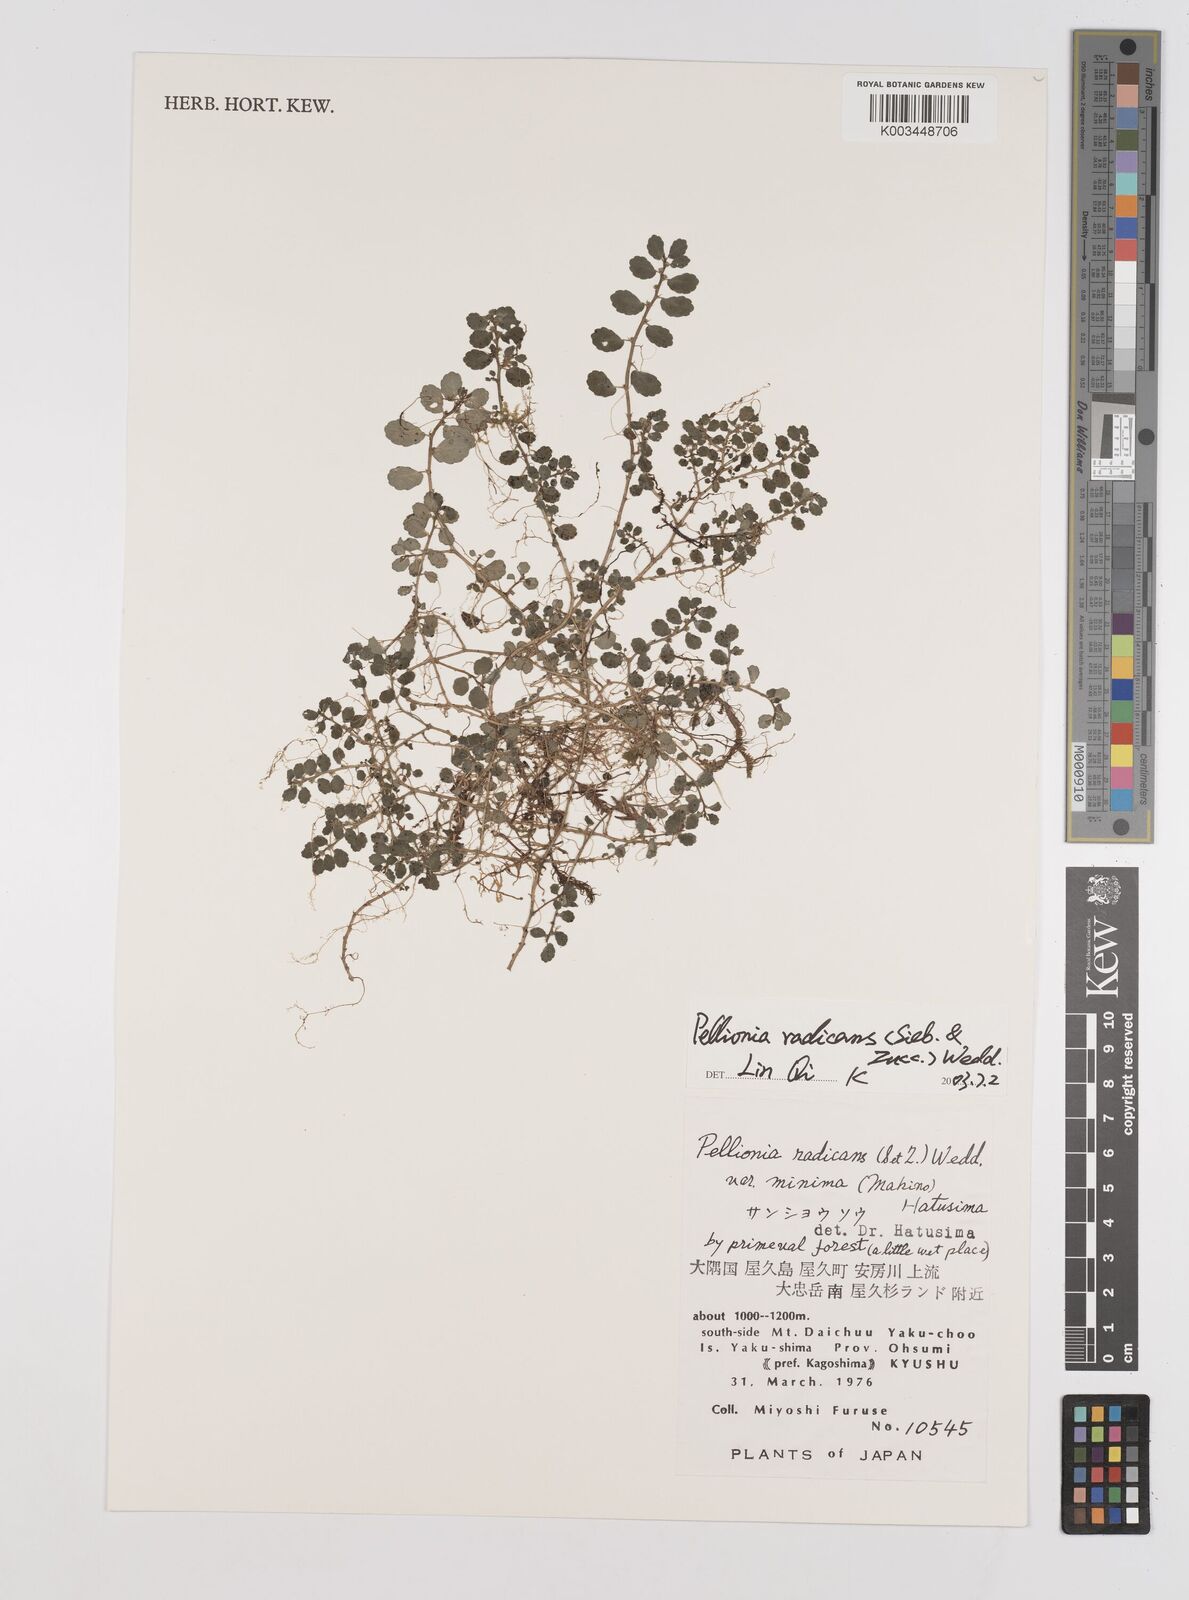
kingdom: Plantae
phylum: Tracheophyta
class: Magnoliopsida
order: Rosales
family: Urticaceae
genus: Elatostema
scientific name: Elatostema radicans
